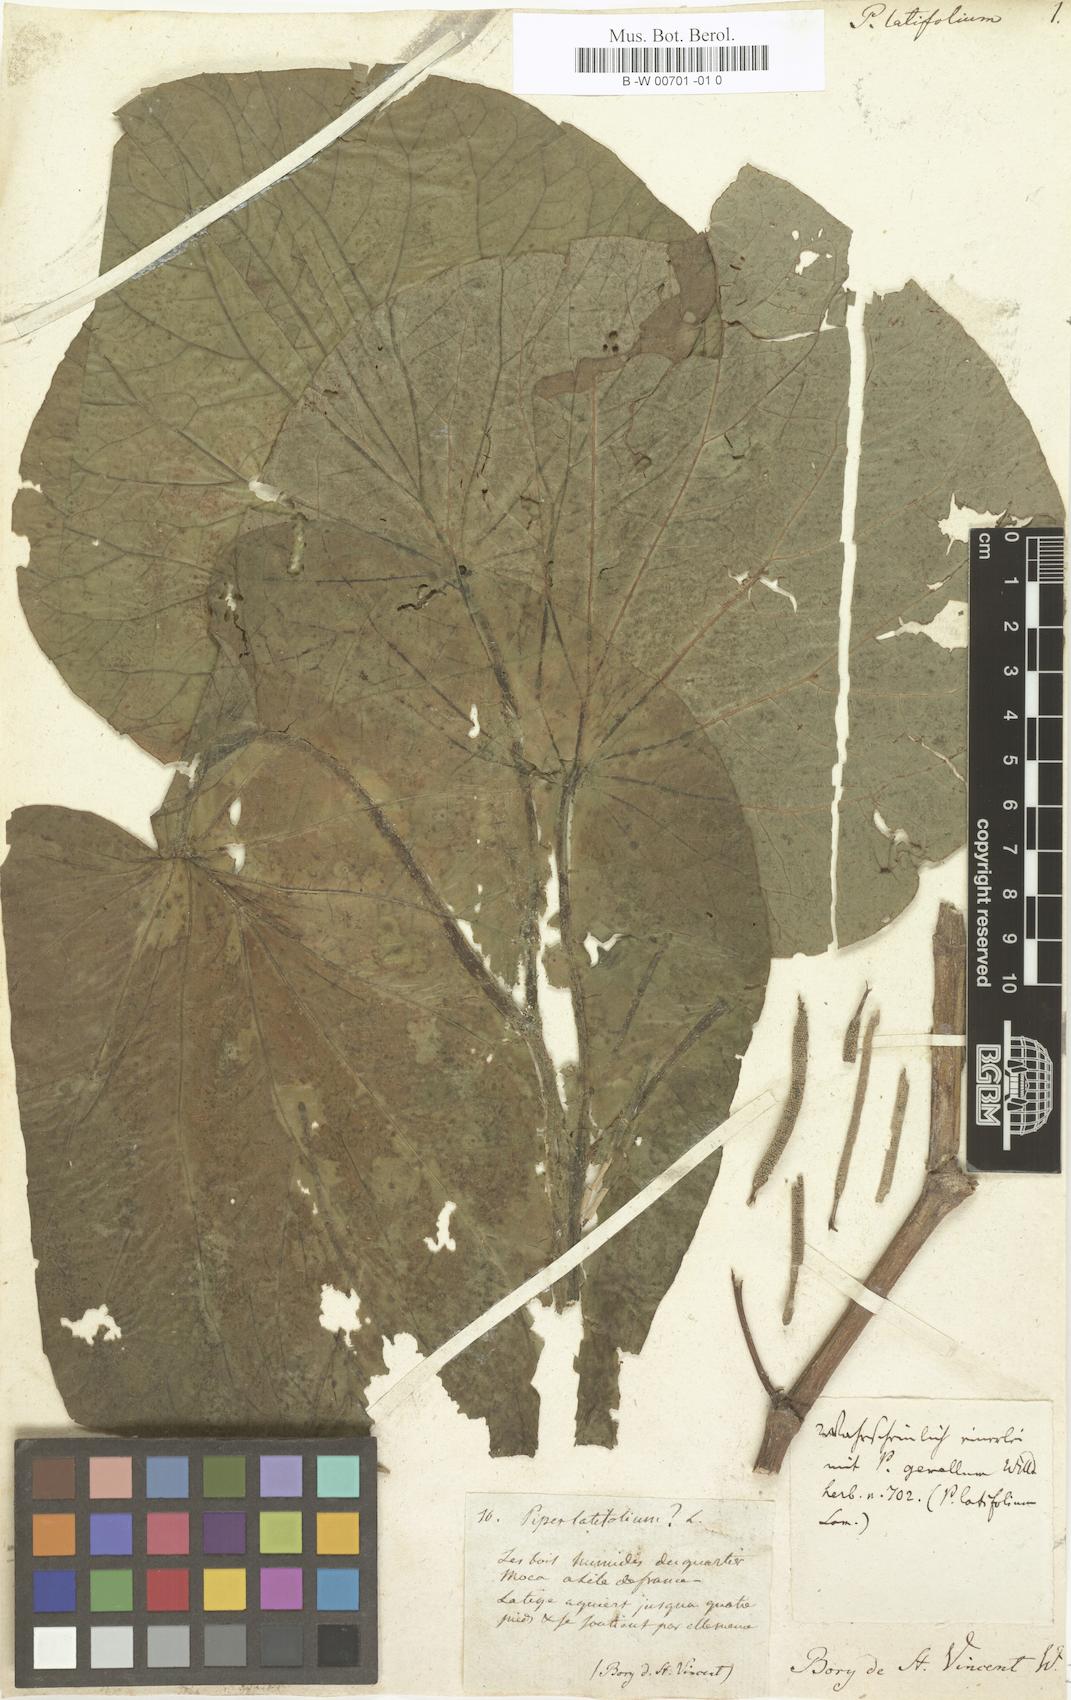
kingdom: Plantae
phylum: Tracheophyta
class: Magnoliopsida
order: Piperales
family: Piperaceae
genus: Macropiper
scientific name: Macropiper latifolium
